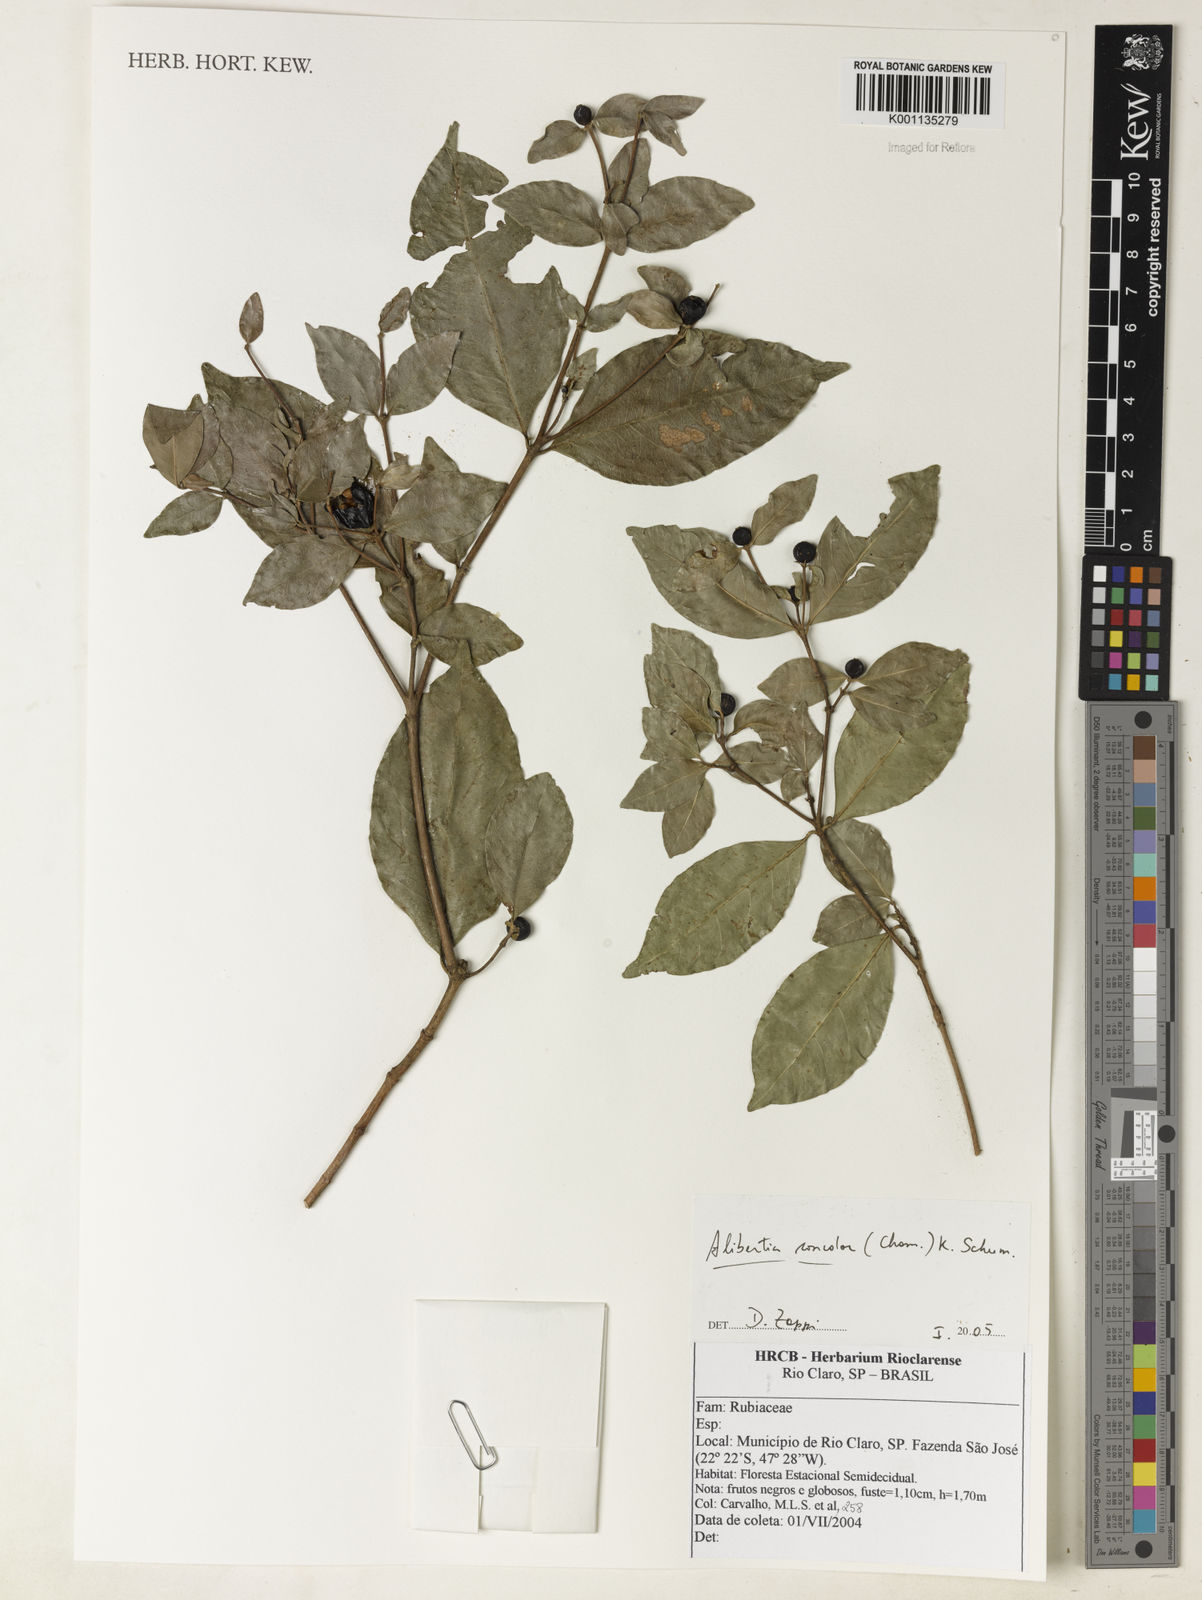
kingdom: Plantae
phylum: Tracheophyta
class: Magnoliopsida
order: Gentianales
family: Rubiaceae
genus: Cordiera
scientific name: Cordiera concolor
